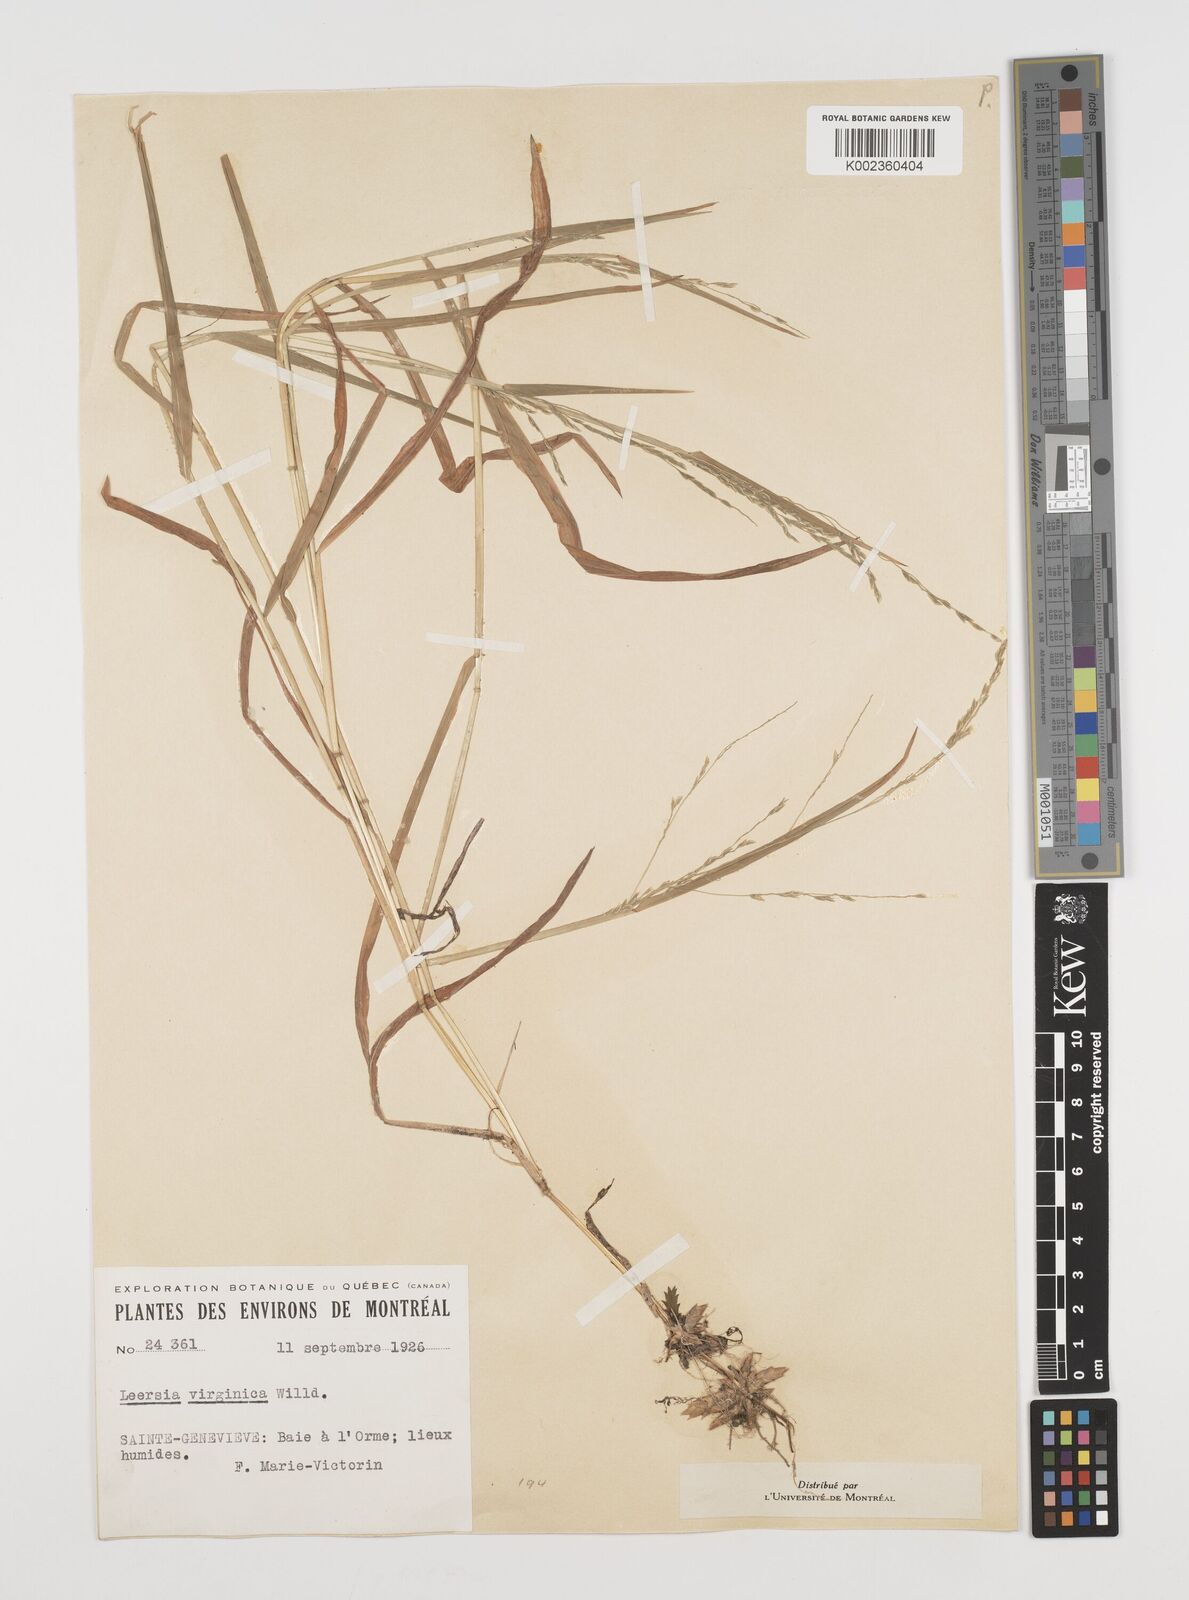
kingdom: Plantae
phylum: Tracheophyta
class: Liliopsida
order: Poales
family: Poaceae
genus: Leersia
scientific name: Leersia virginica
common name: White cutgrass
